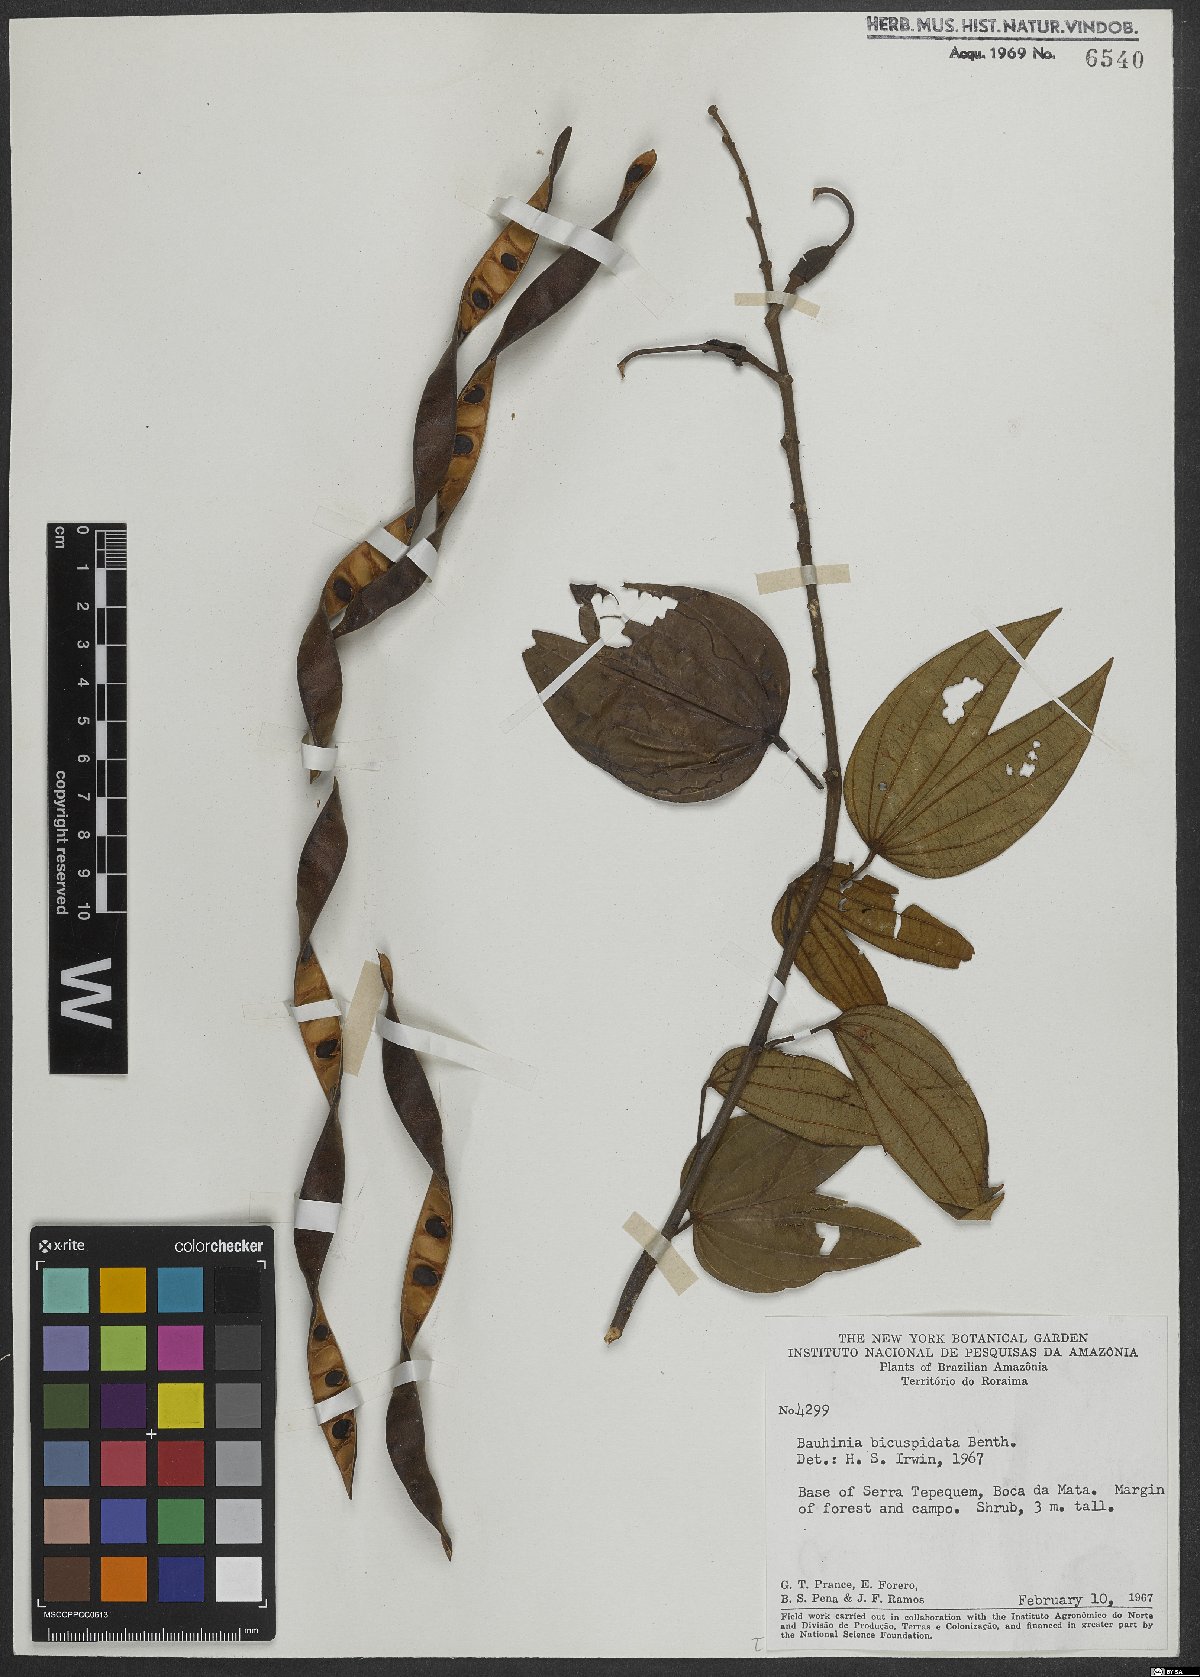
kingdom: Plantae
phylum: Tracheophyta
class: Magnoliopsida
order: Fabales
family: Fabaceae
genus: Bauhinia
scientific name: Bauhinia longicuspis
